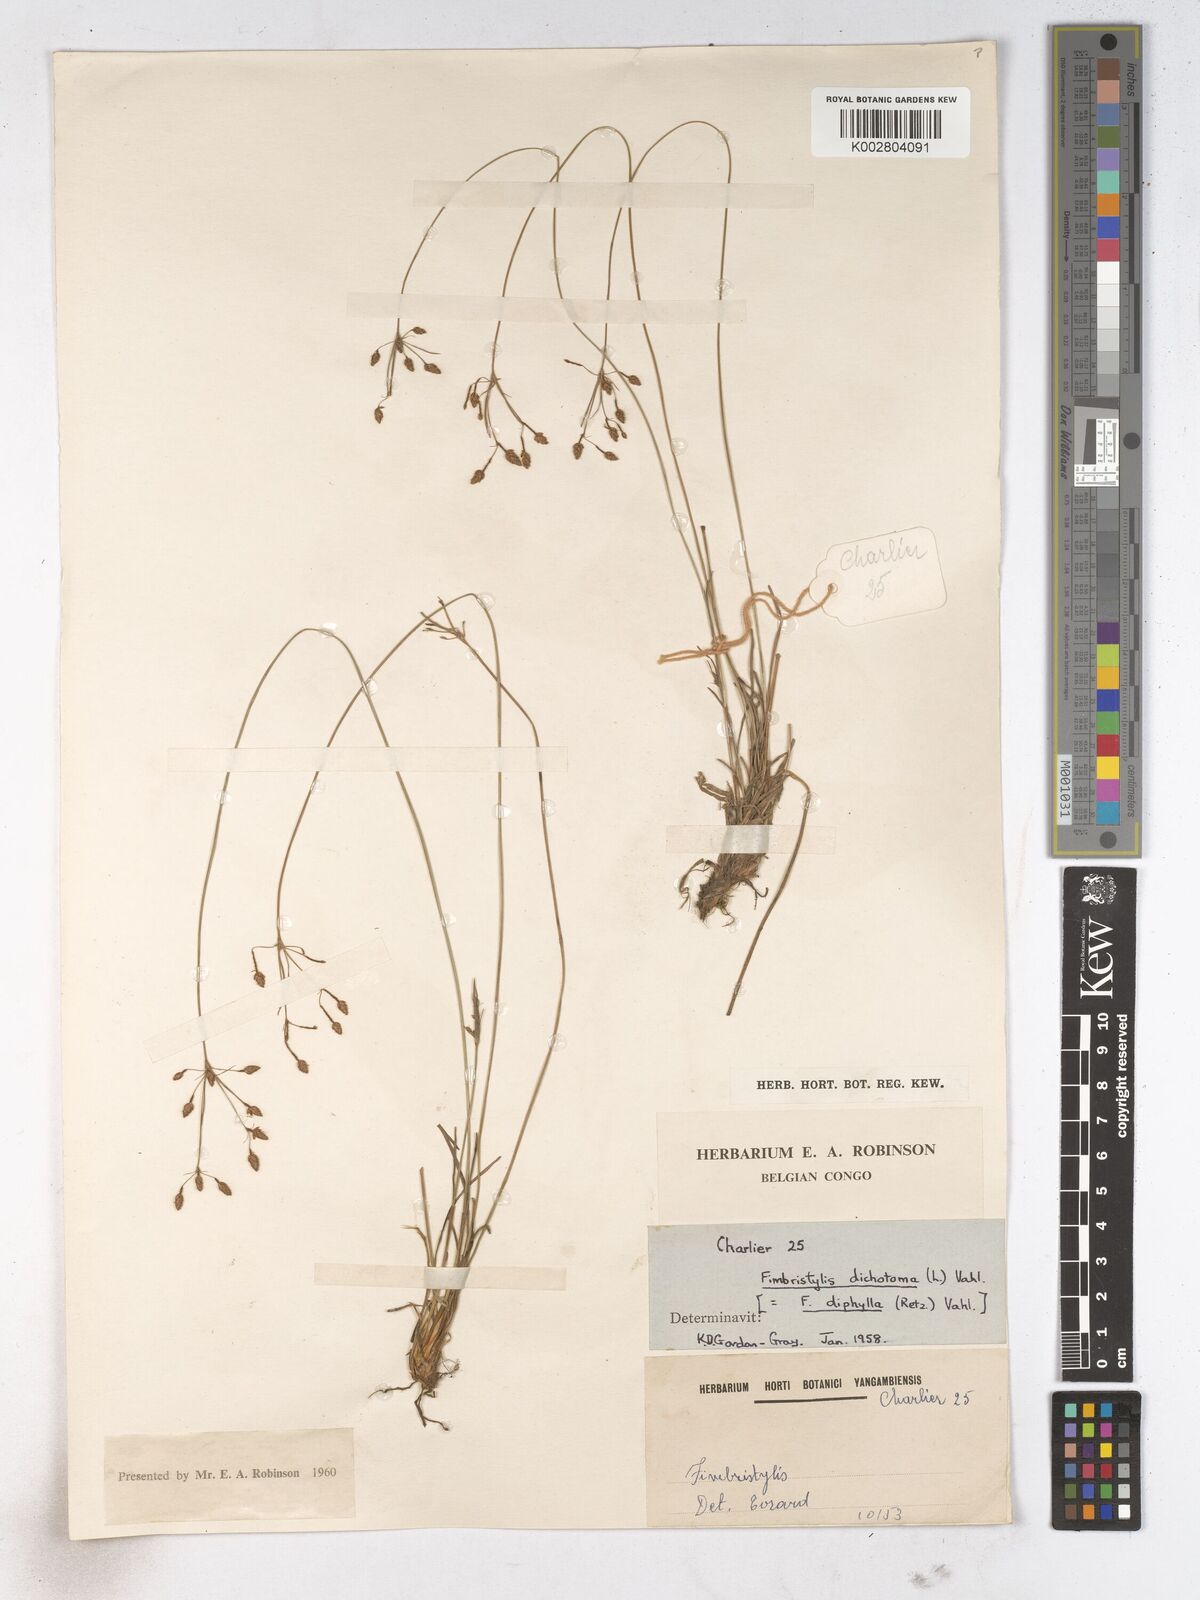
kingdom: Plantae
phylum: Tracheophyta
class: Liliopsida
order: Poales
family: Cyperaceae
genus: Fimbristylis
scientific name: Fimbristylis dichotoma
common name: Forked fimbry
